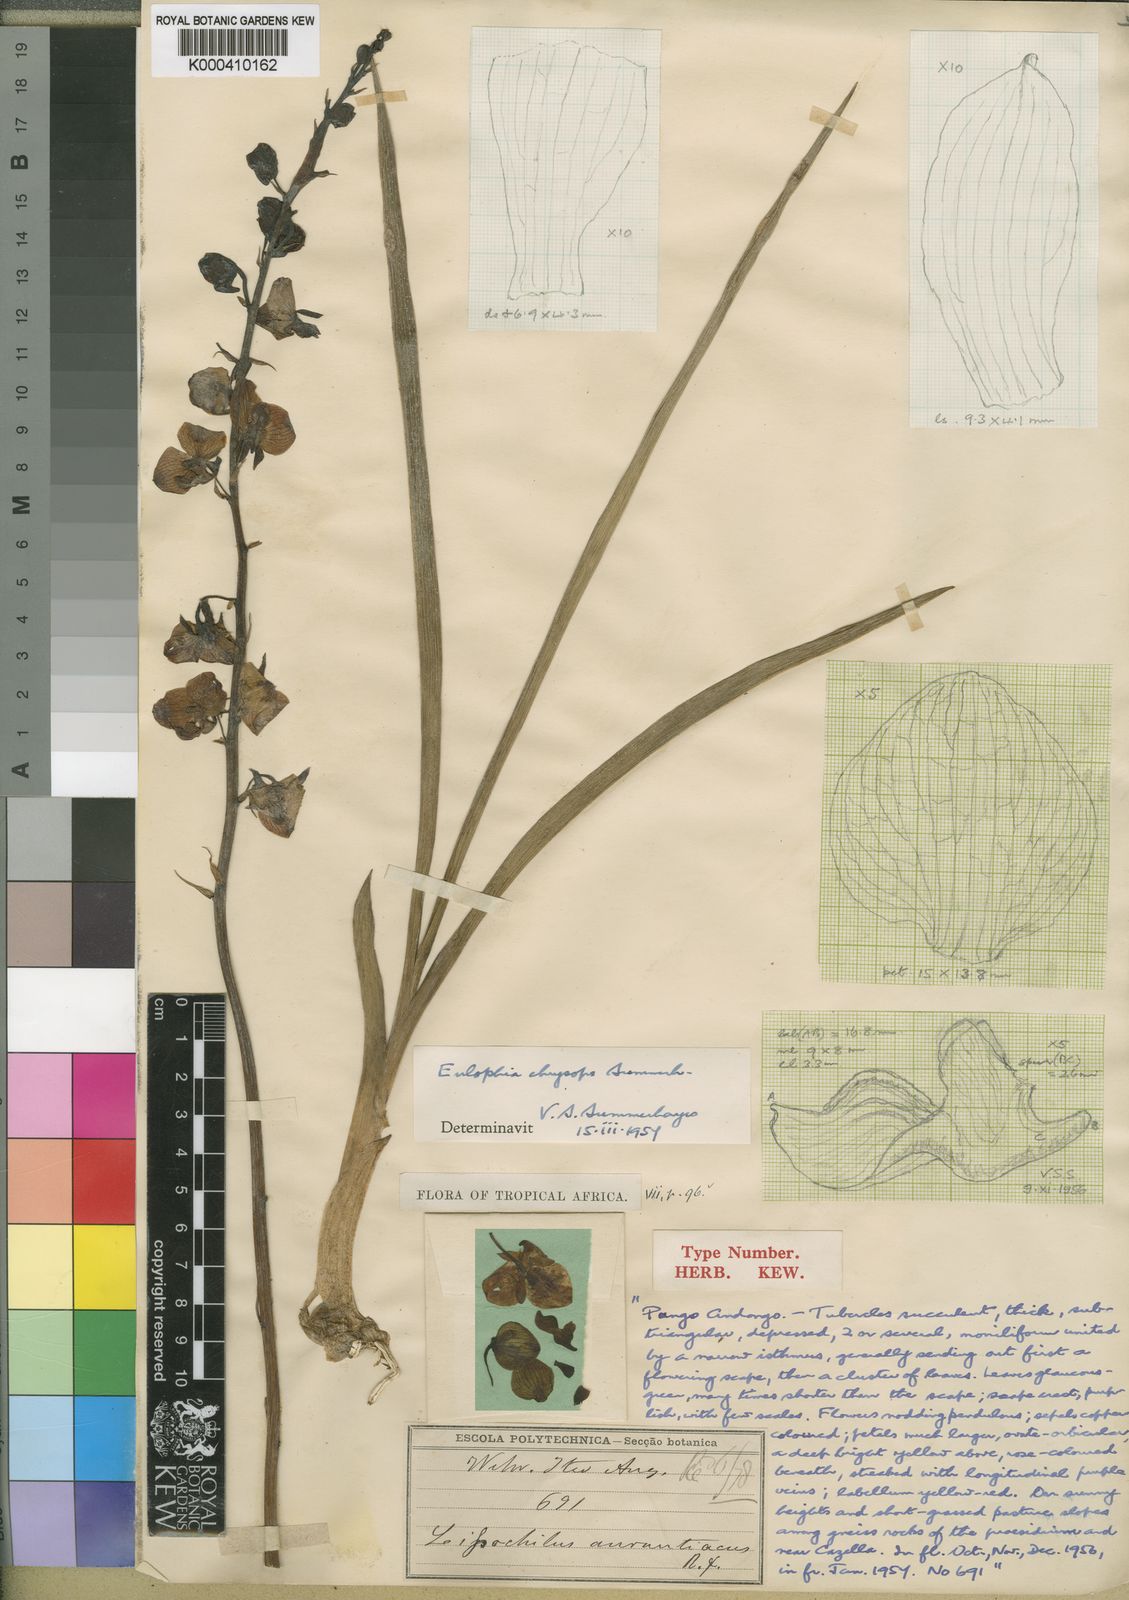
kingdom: Plantae
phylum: Tracheophyta
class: Liliopsida
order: Asparagales
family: Orchidaceae
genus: Eulophia
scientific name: Eulophia schweinfurthii
